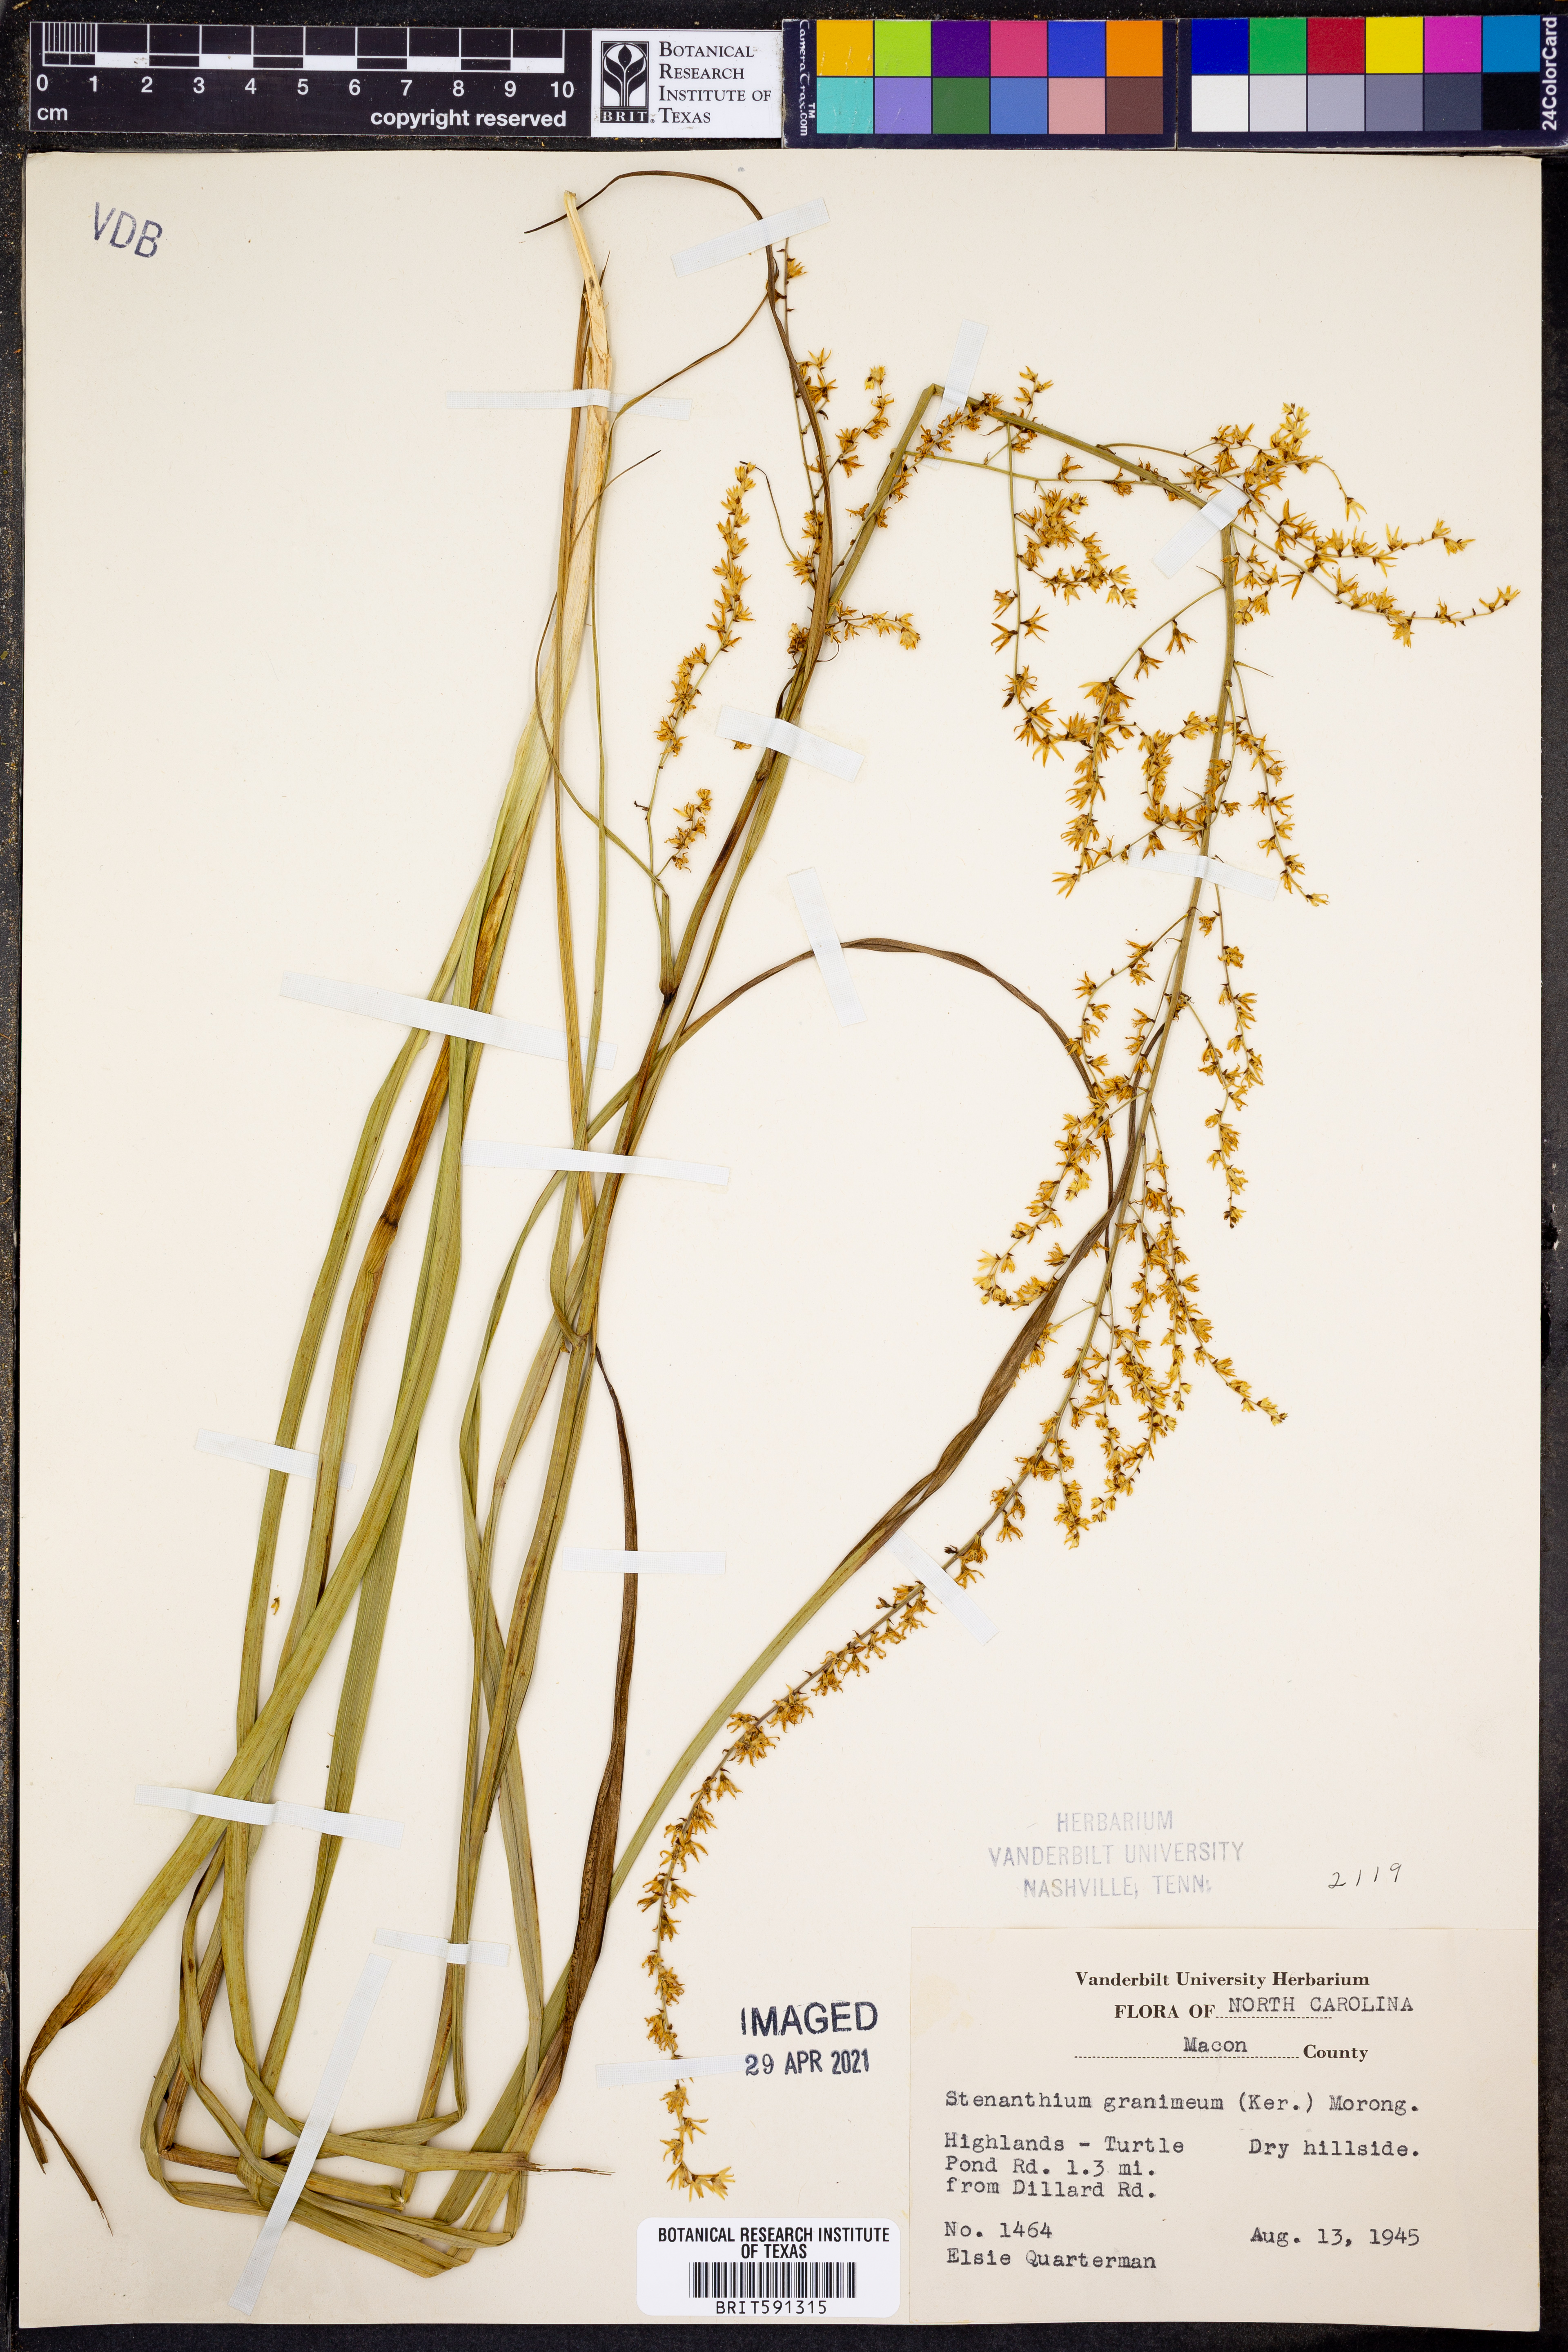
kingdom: Plantae
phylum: Tracheophyta
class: Liliopsida
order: Liliales
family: Melanthiaceae
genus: Stenanthium
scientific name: Stenanthium gramineum
